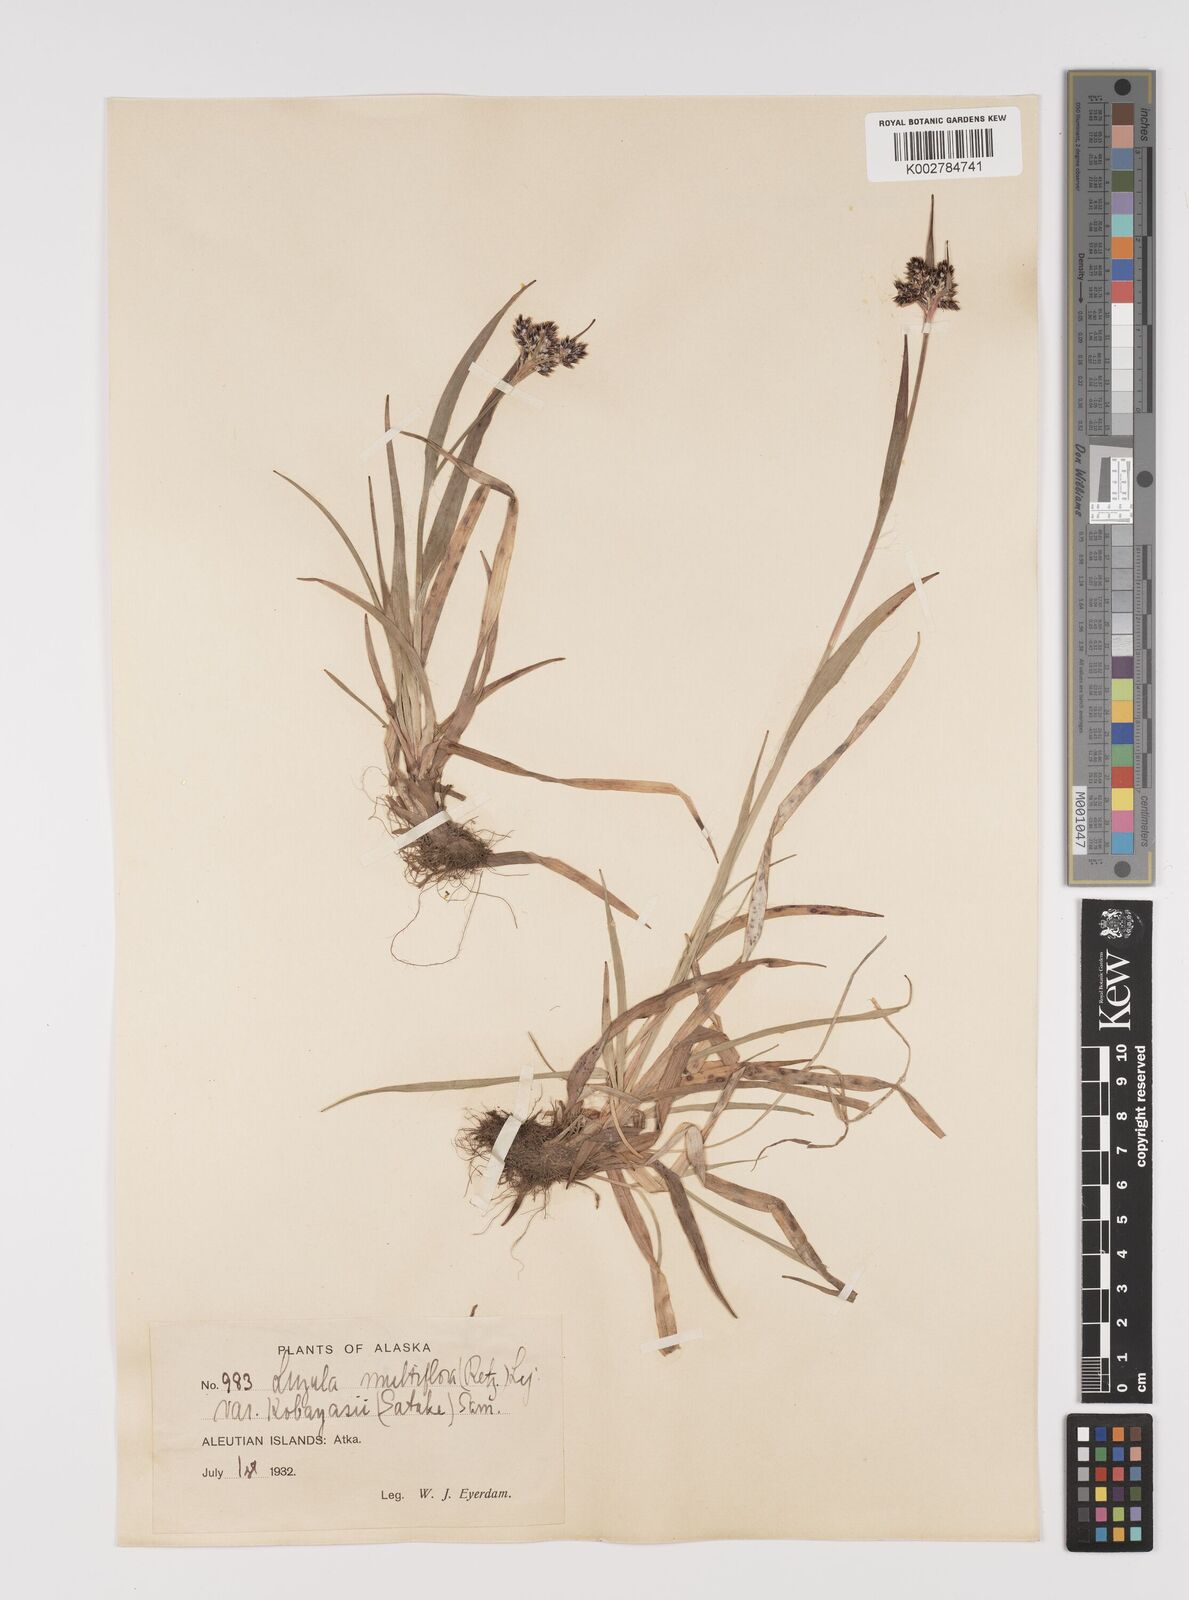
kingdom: Plantae
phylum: Tracheophyta
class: Liliopsida
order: Poales
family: Juncaceae
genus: Luzula
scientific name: Luzula campestris
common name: Field wood-rush
